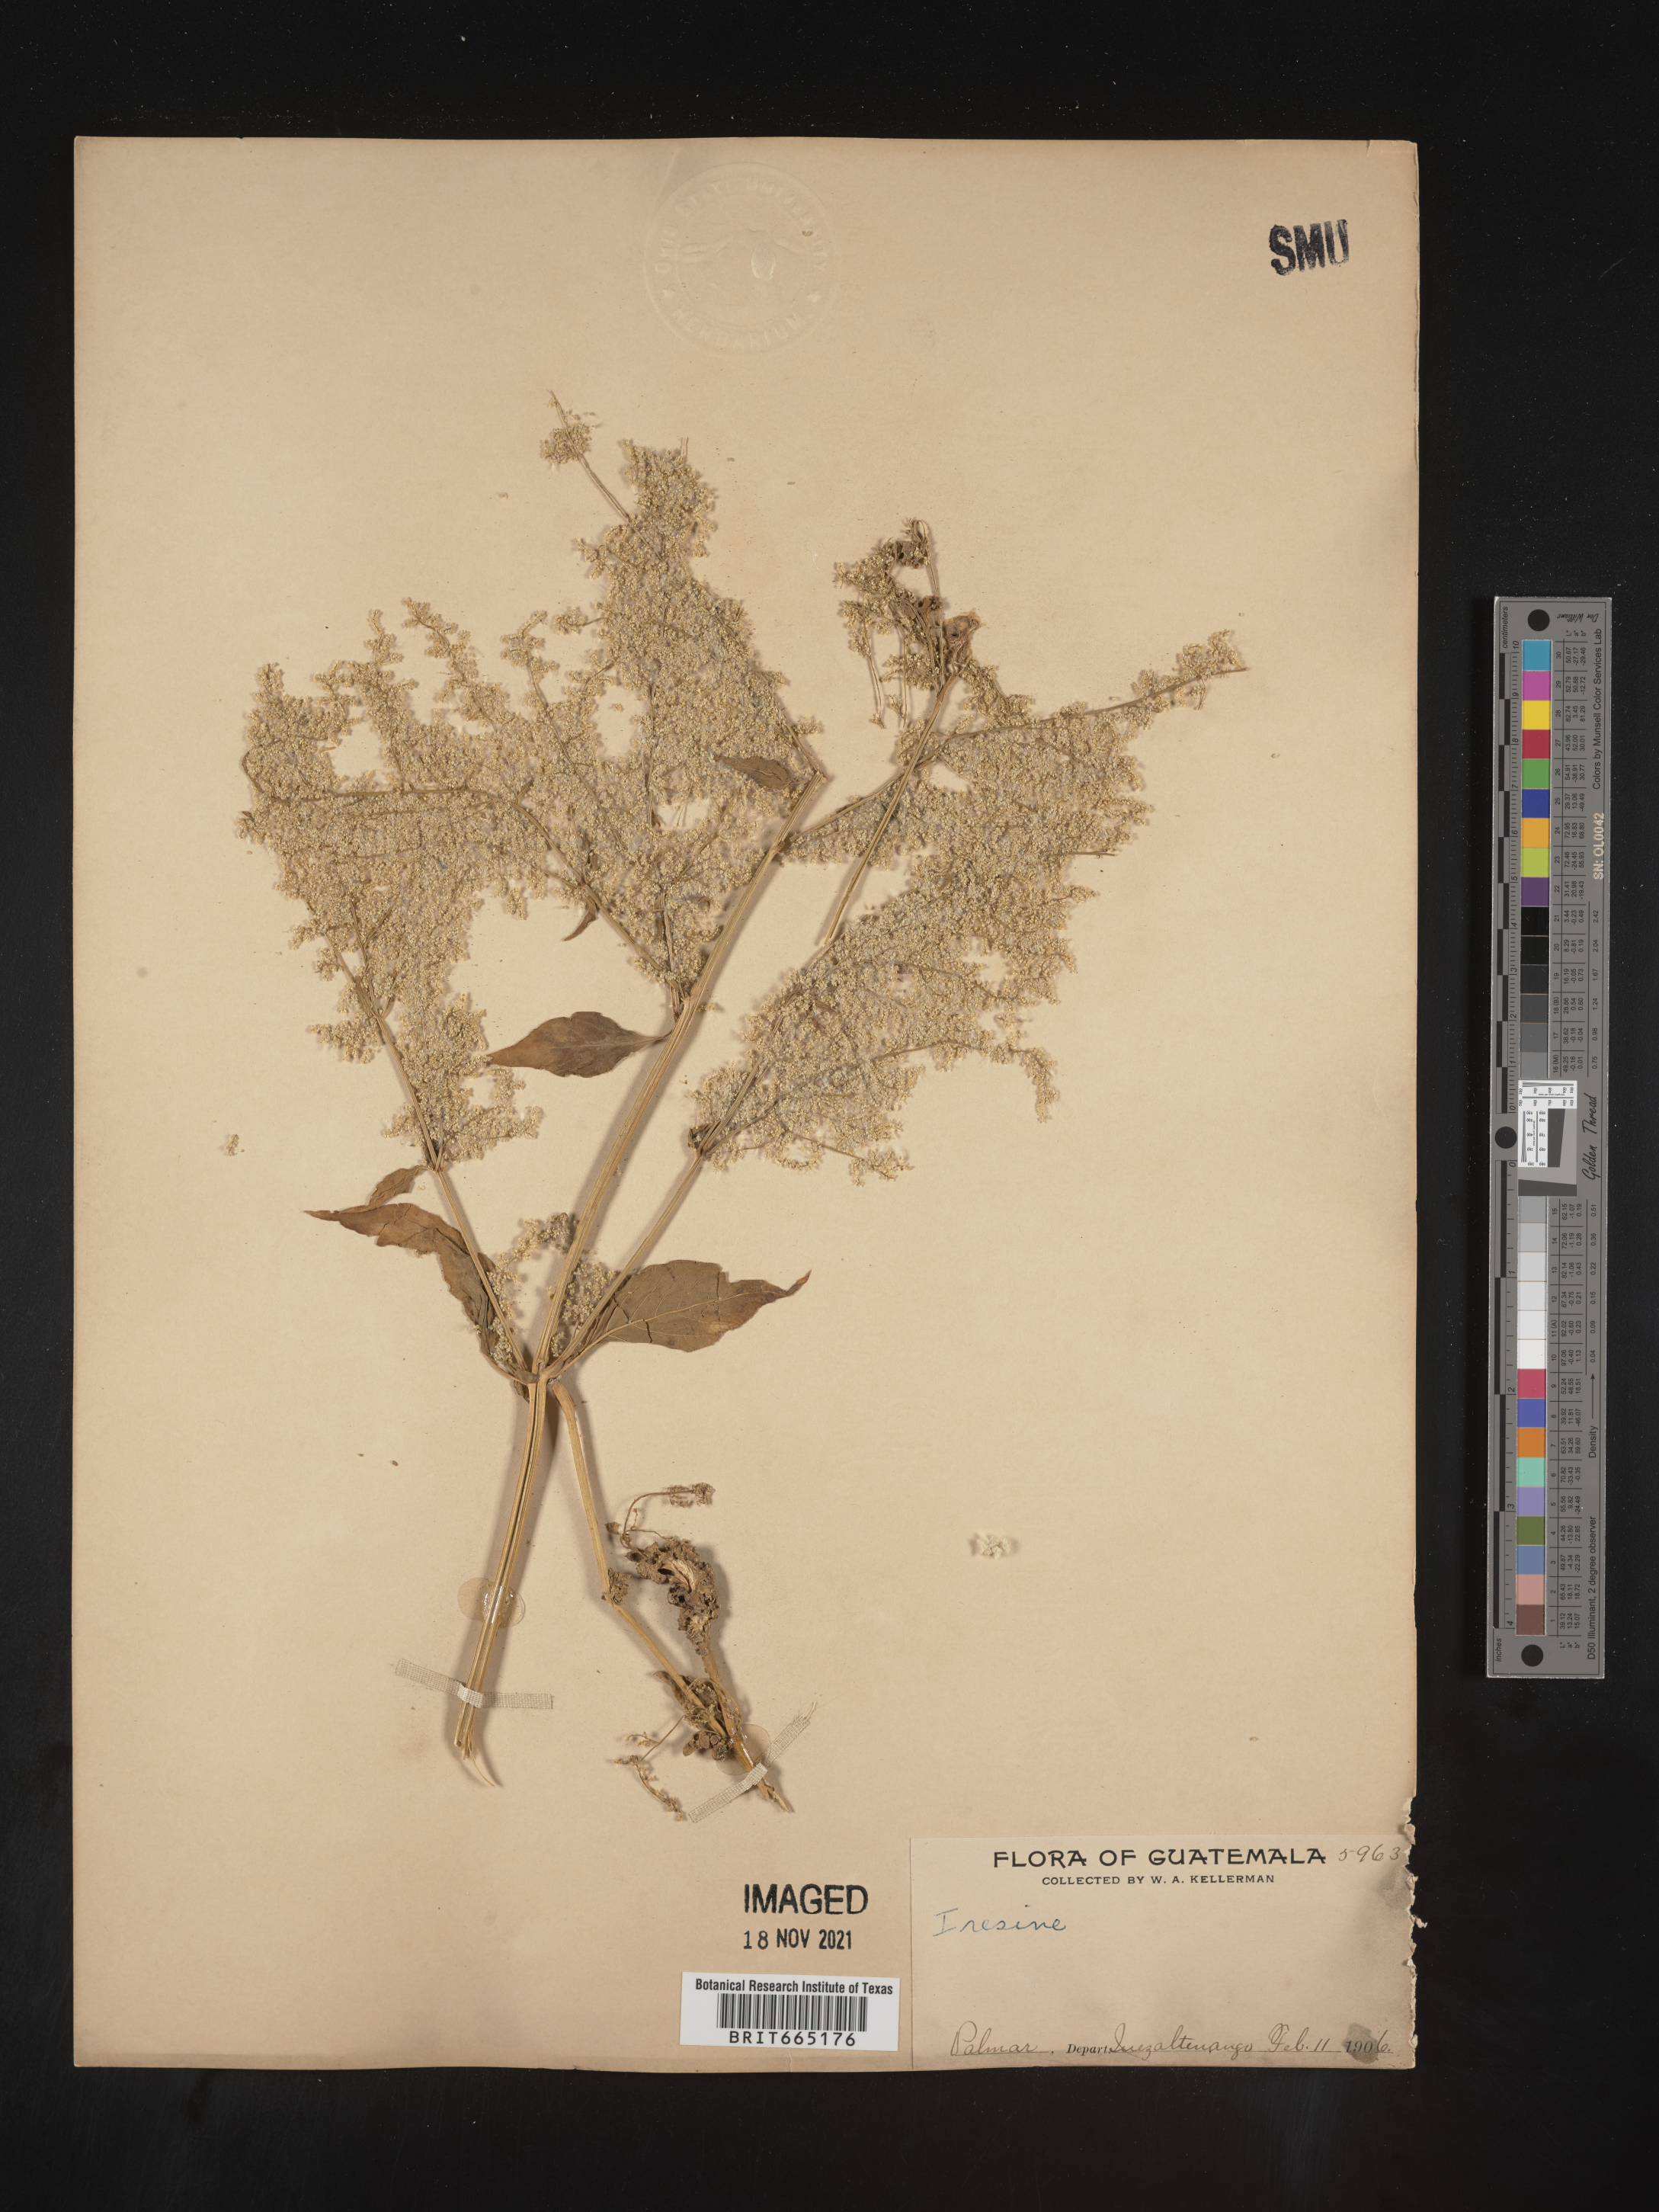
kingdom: Plantae
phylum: Tracheophyta
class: Magnoliopsida
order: Caryophyllales
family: Amaranthaceae
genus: Iresine
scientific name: Iresine
